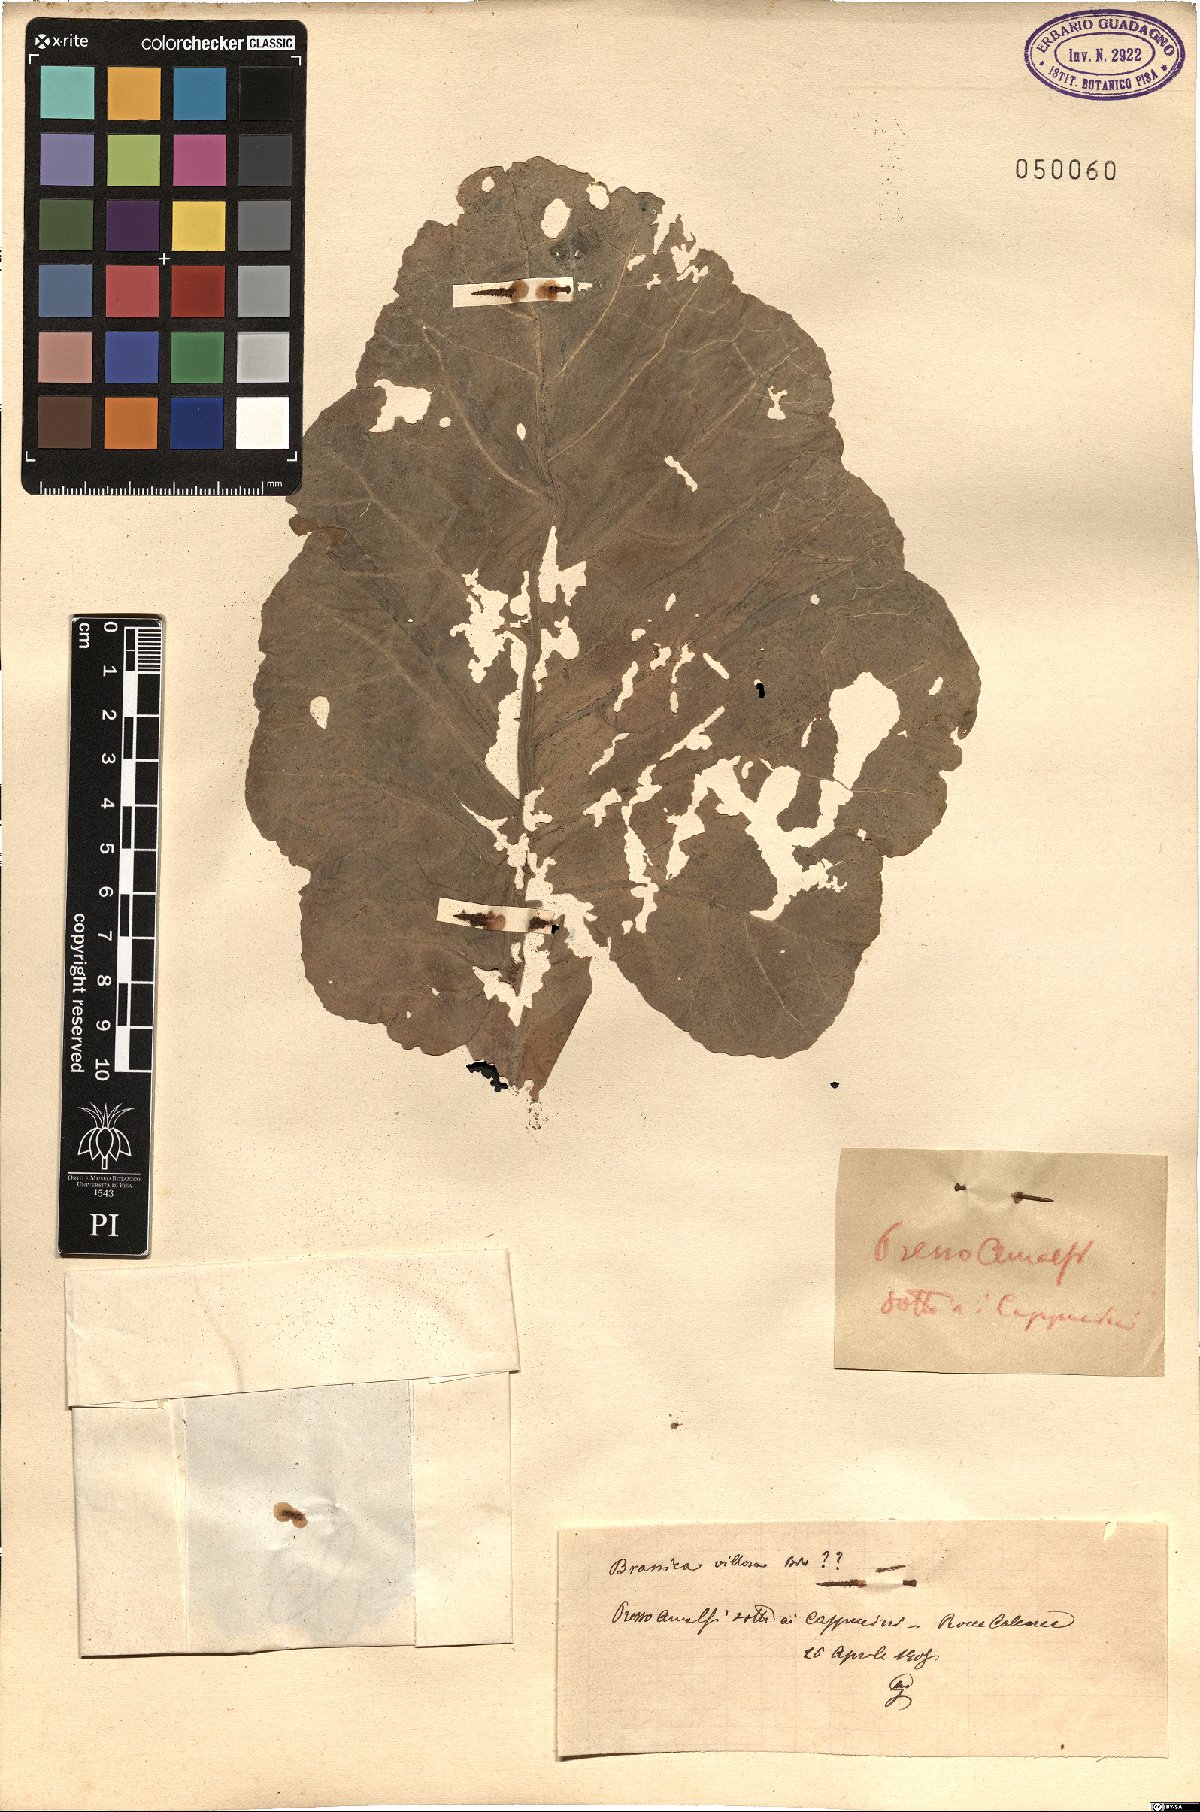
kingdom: Plantae
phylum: Tracheophyta
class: Magnoliopsida
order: Brassicales
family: Brassicaceae
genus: Brassica
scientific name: Brassica villosa
